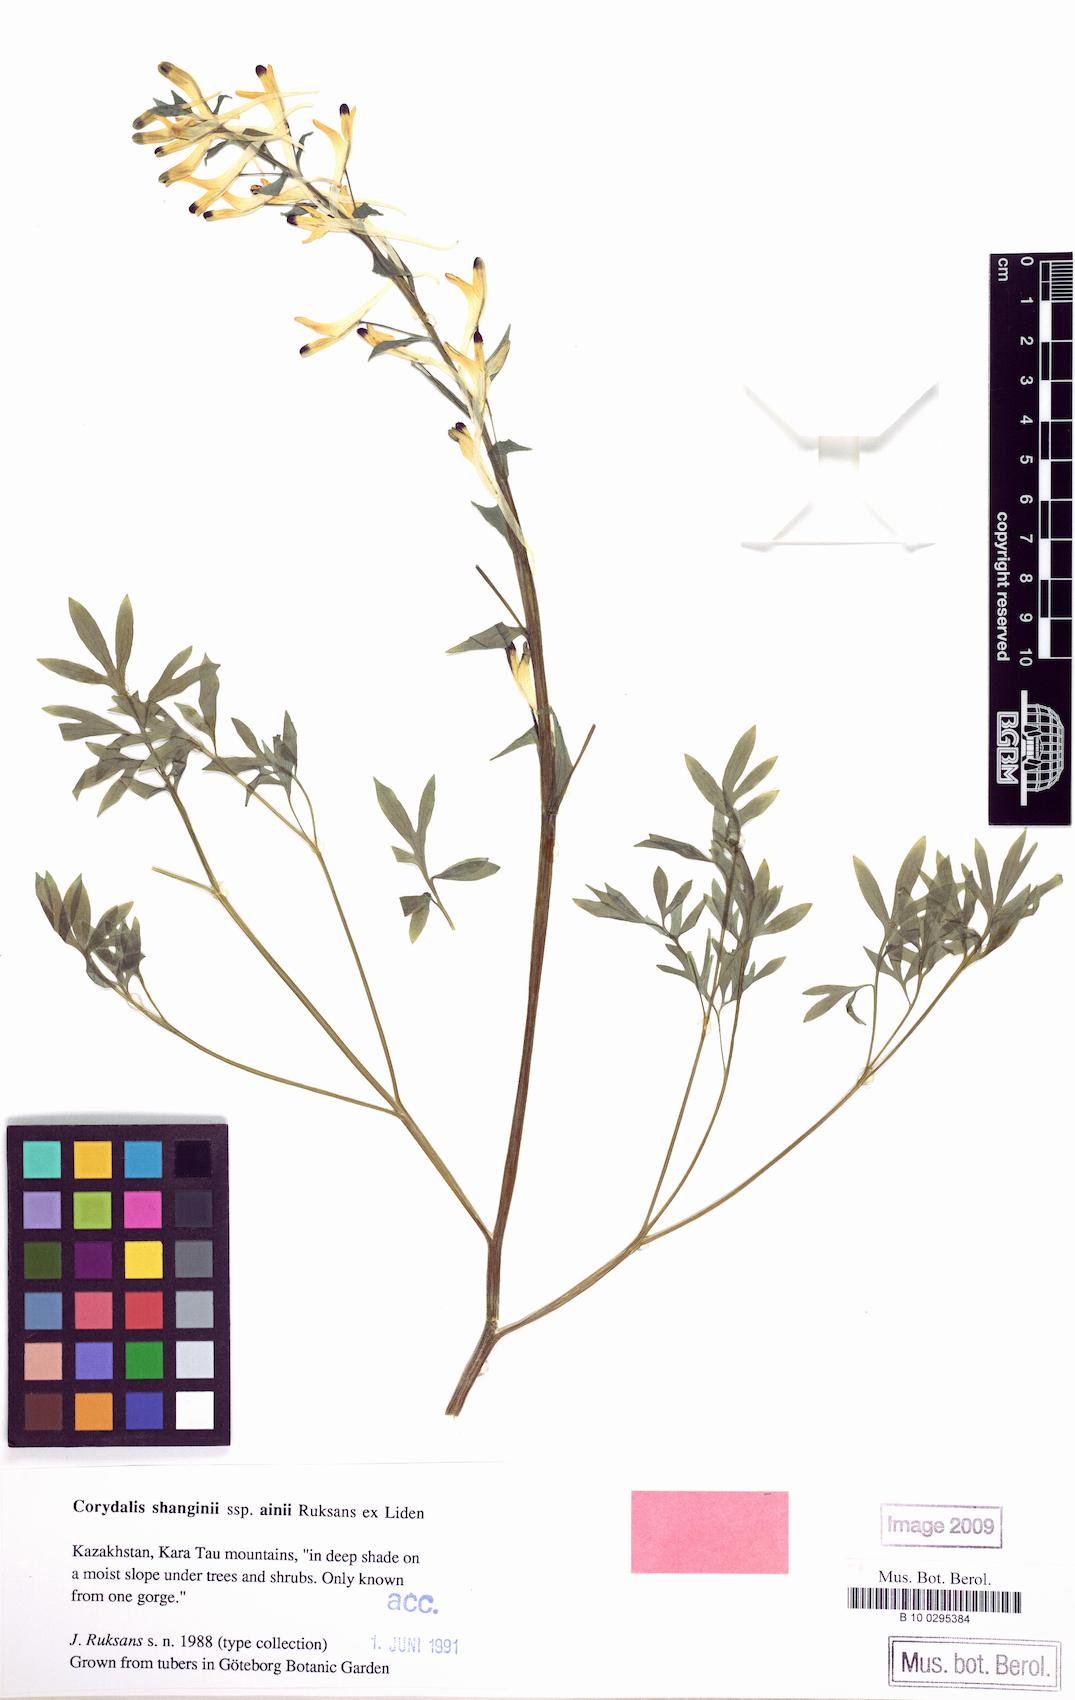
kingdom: Plantae
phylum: Tracheophyta
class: Magnoliopsida
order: Ranunculales
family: Papaveraceae
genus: Corydalis
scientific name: Corydalis shanginii
